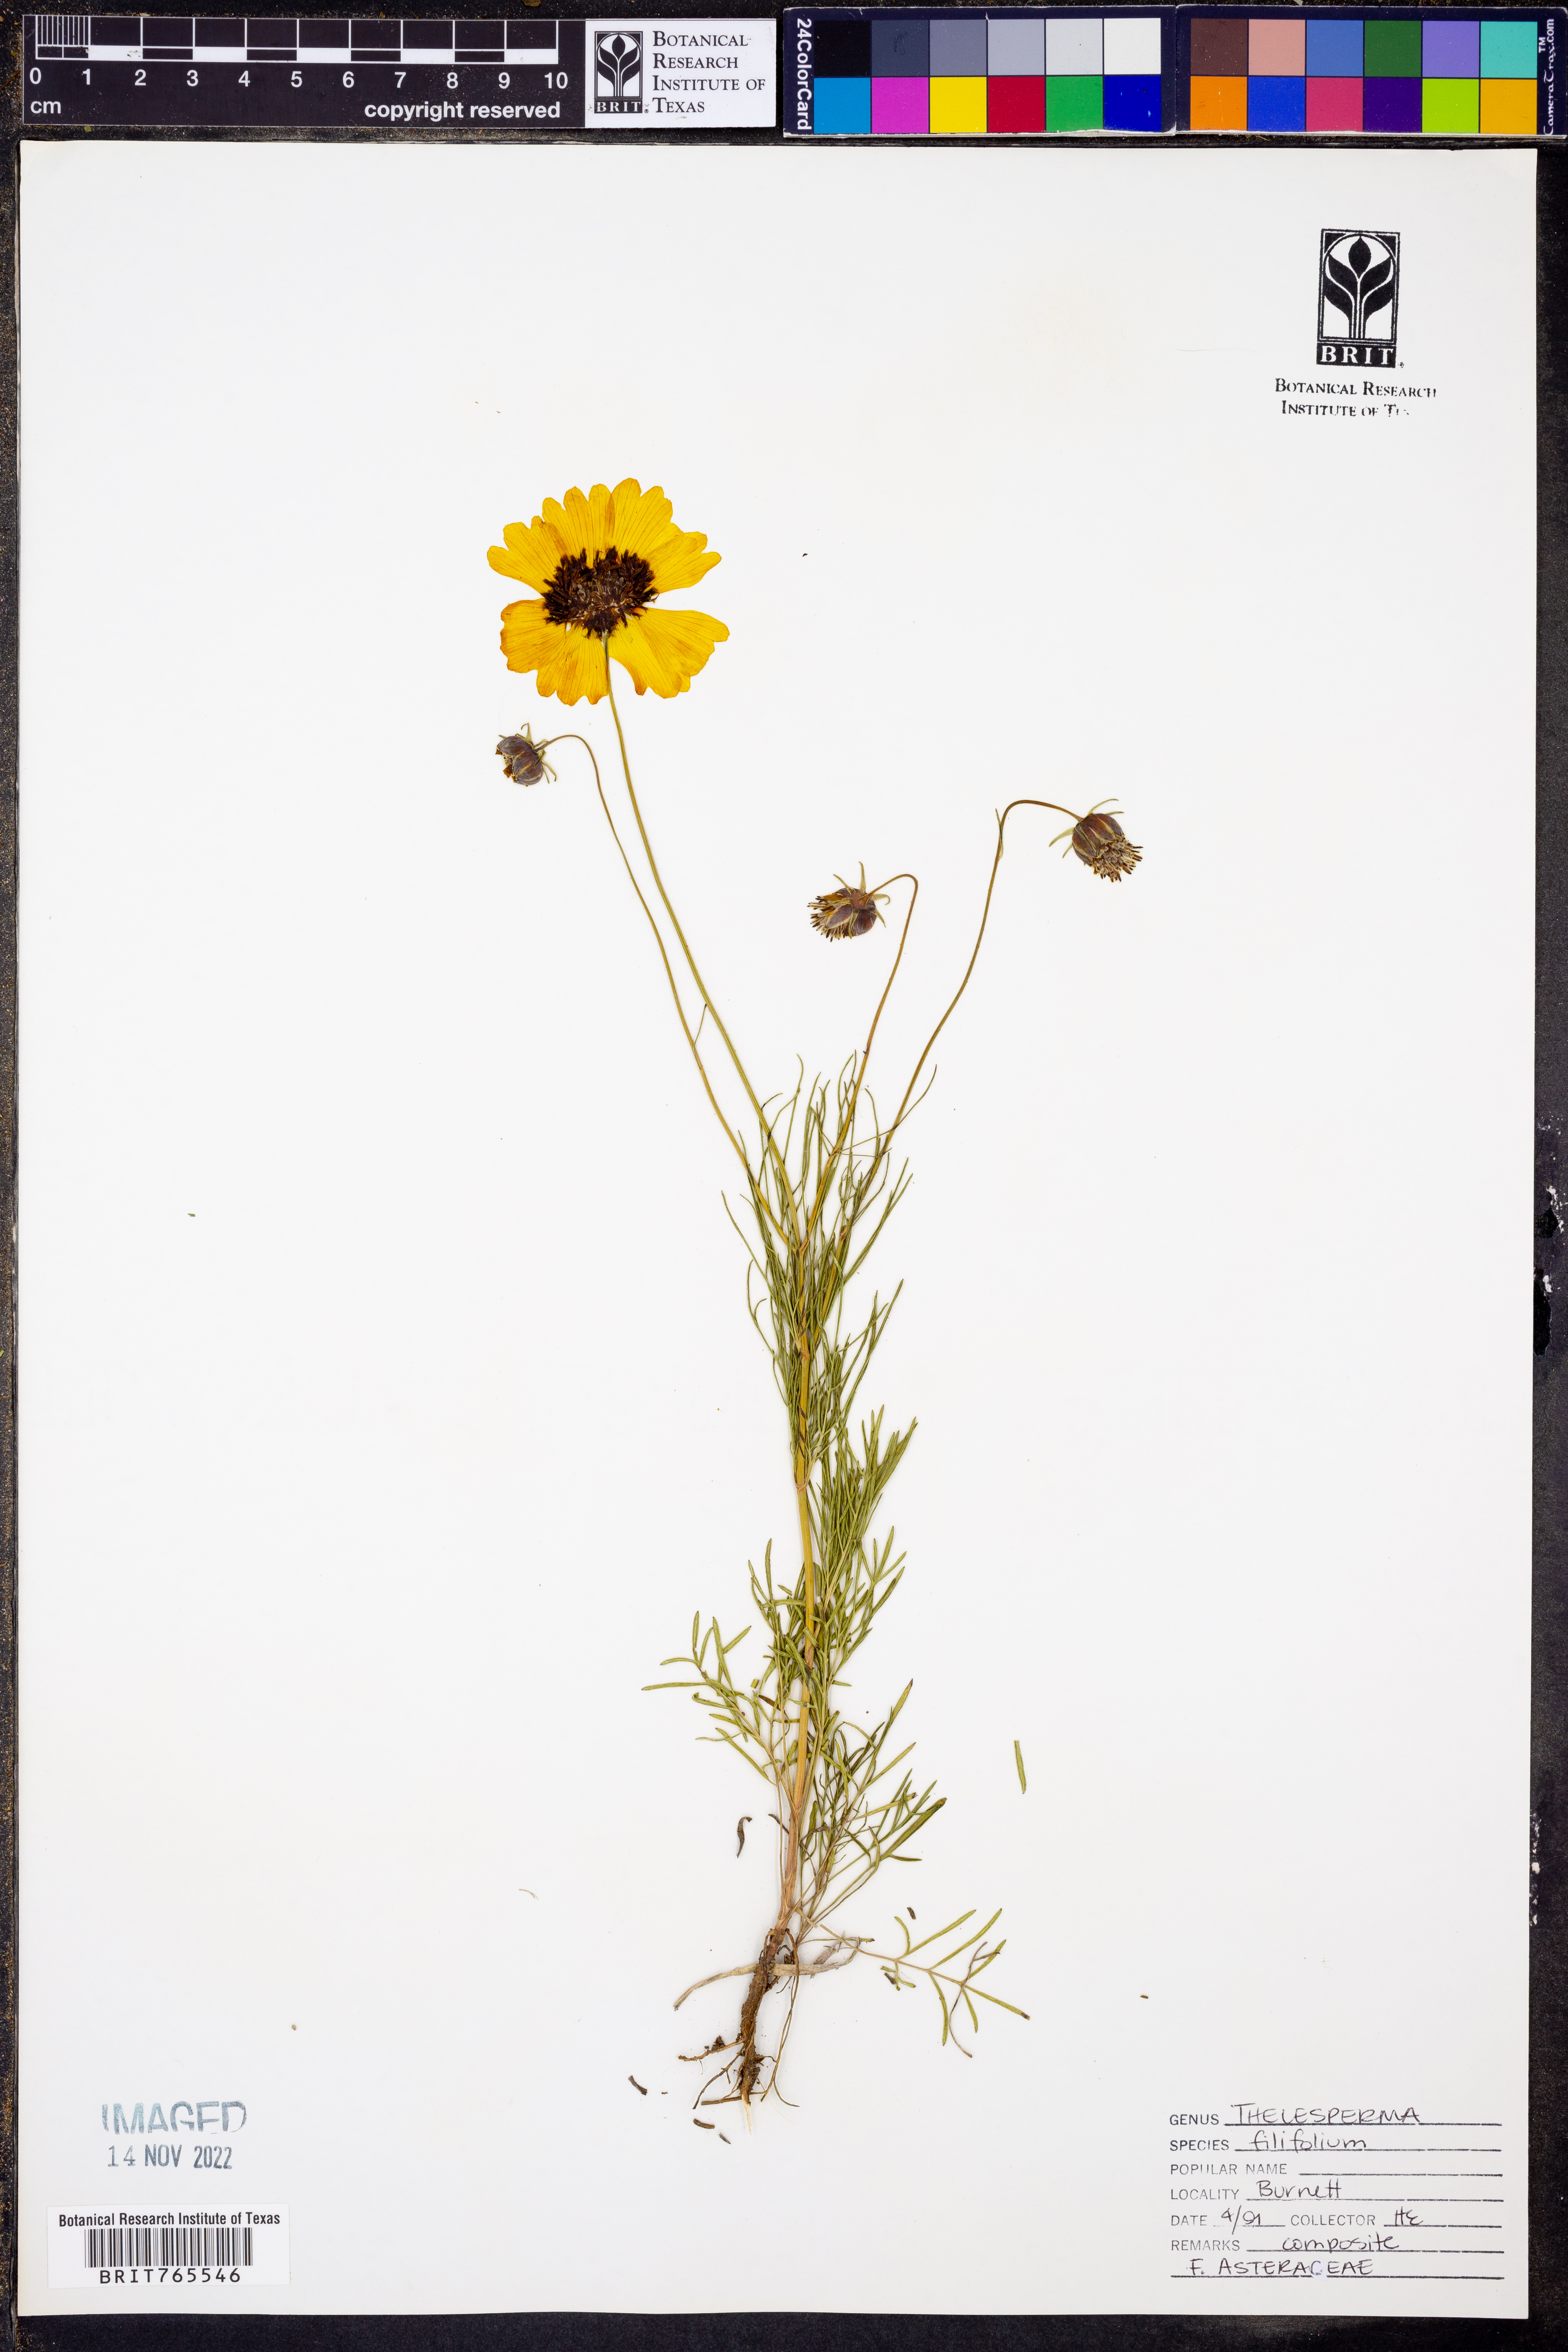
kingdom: Plantae
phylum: Tracheophyta
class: Magnoliopsida
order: Asterales
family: Asteraceae
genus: Thelesperma
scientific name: Thelesperma filifolium
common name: Stiff greenthread
